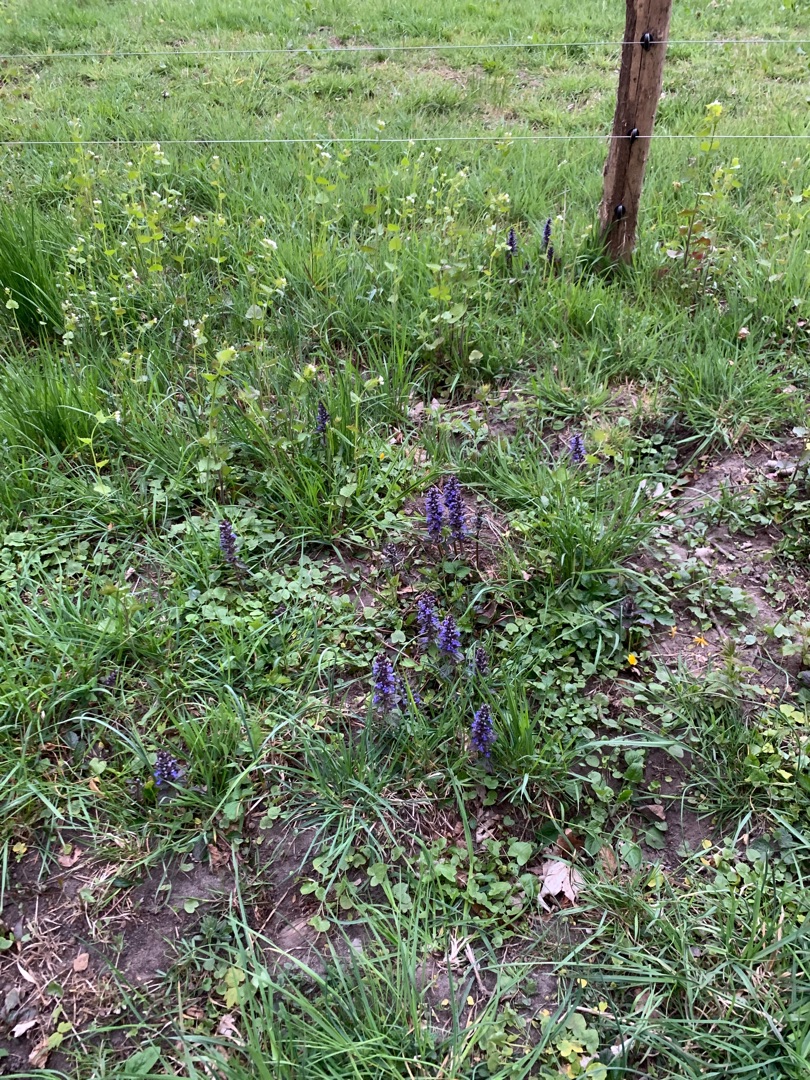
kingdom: Plantae
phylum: Tracheophyta
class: Magnoliopsida
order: Lamiales
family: Lamiaceae
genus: Ajuga
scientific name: Ajuga reptans
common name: Krybende læbeløs
